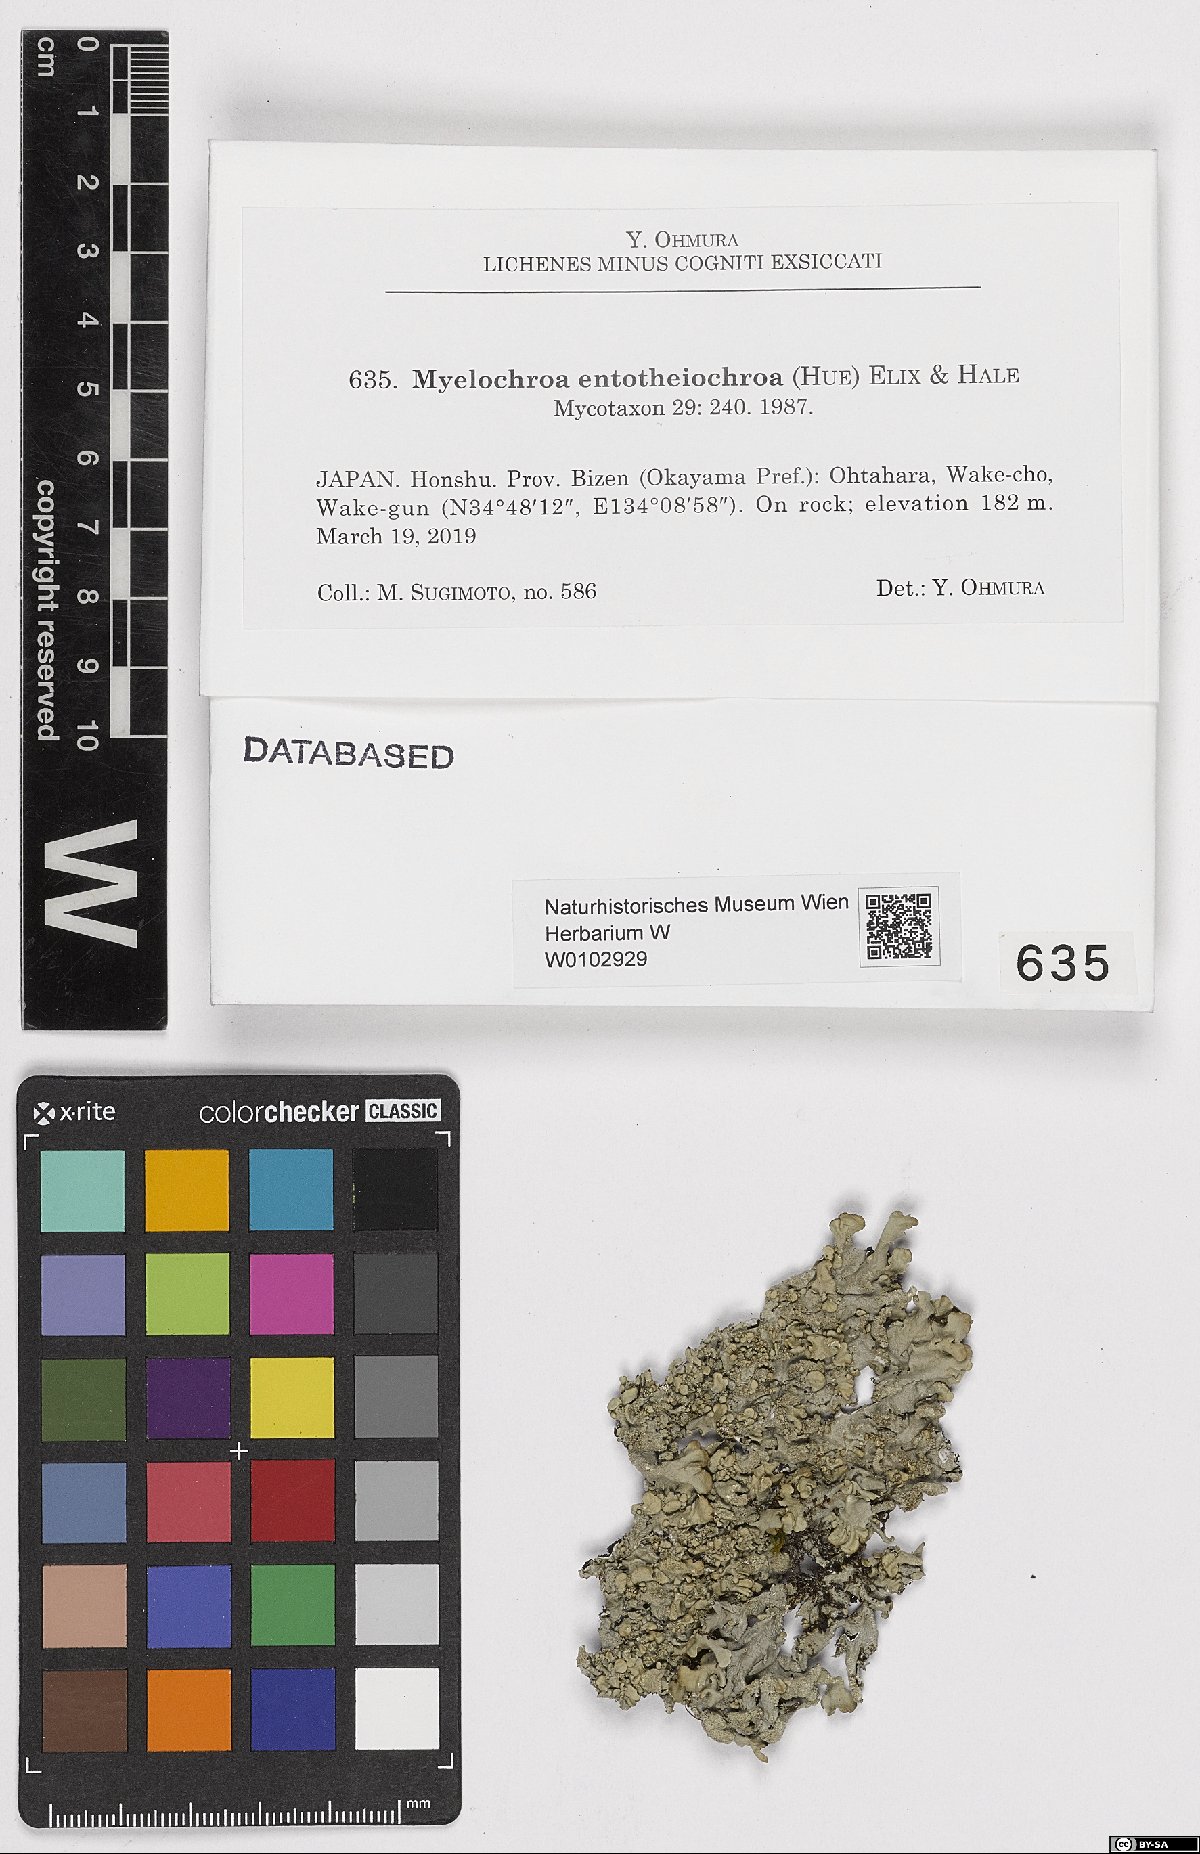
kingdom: Fungi
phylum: Ascomycota
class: Lecanoromycetes
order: Lecanorales
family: Parmeliaceae
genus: Myelochroa
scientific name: Myelochroa entotheiochroa
